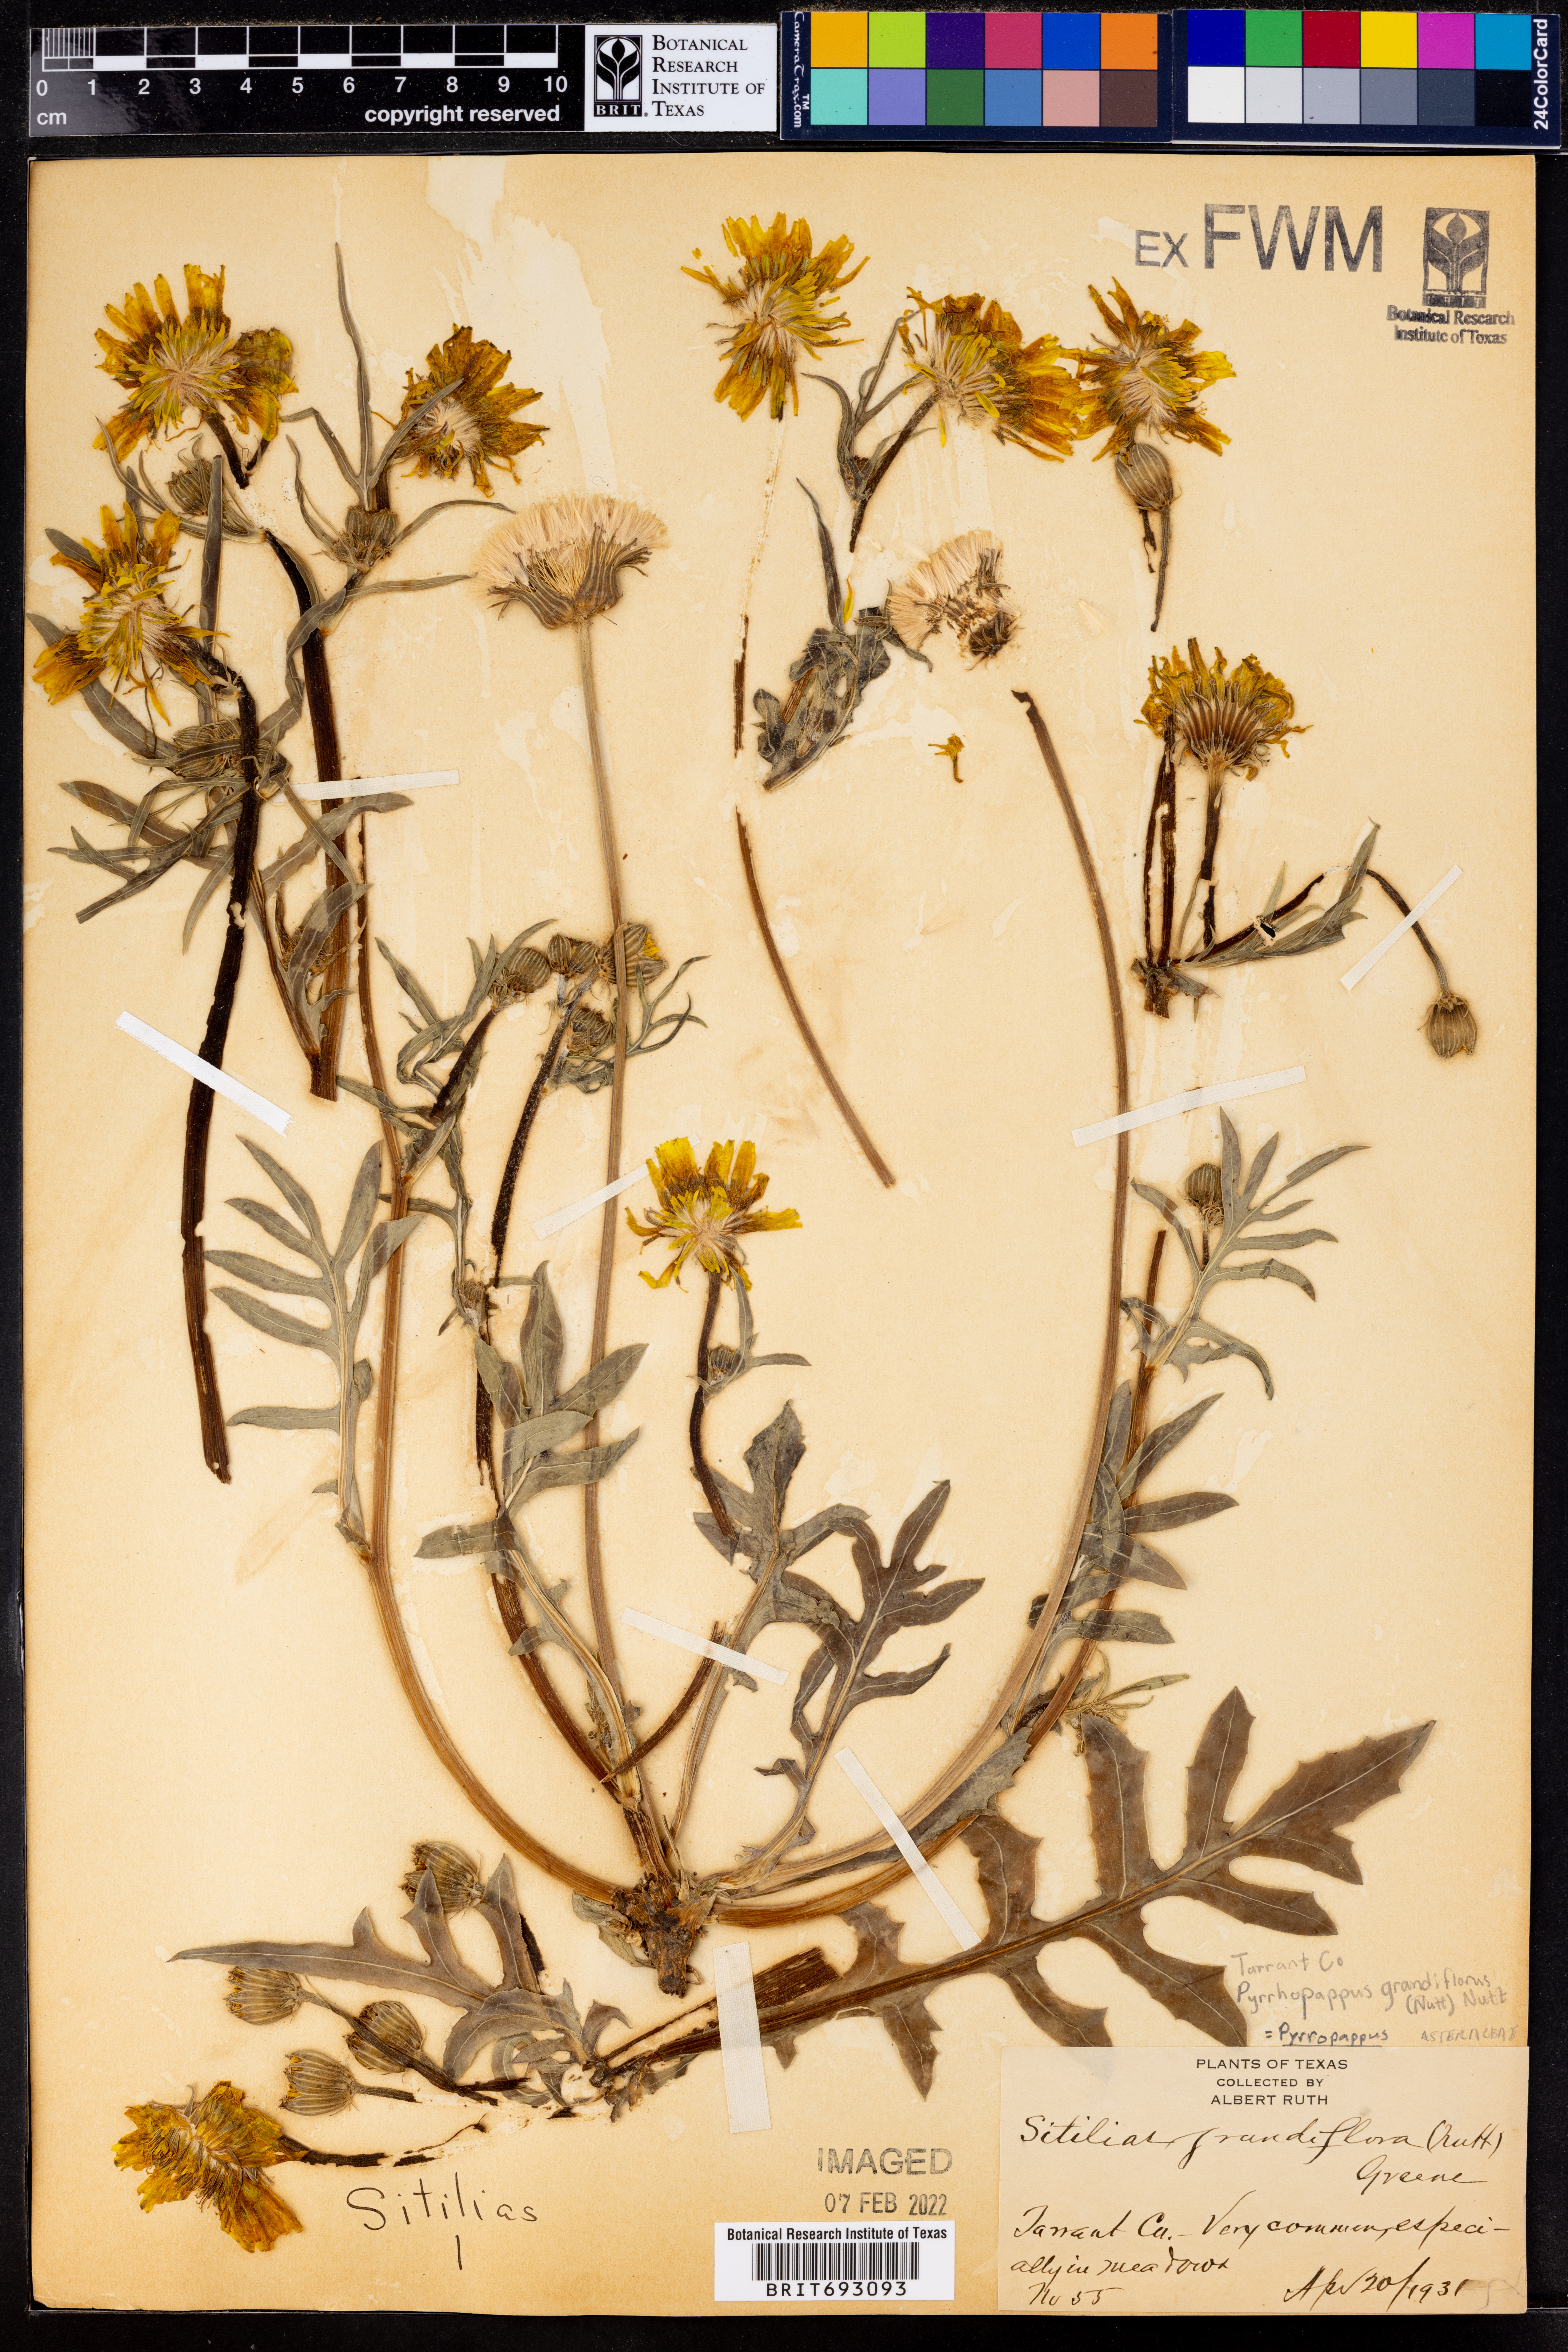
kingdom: Plantae
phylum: Tracheophyta
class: Magnoliopsida
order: Asterales
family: Asteraceae
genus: Pyrrhopappus
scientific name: Pyrrhopappus grandiflorus
